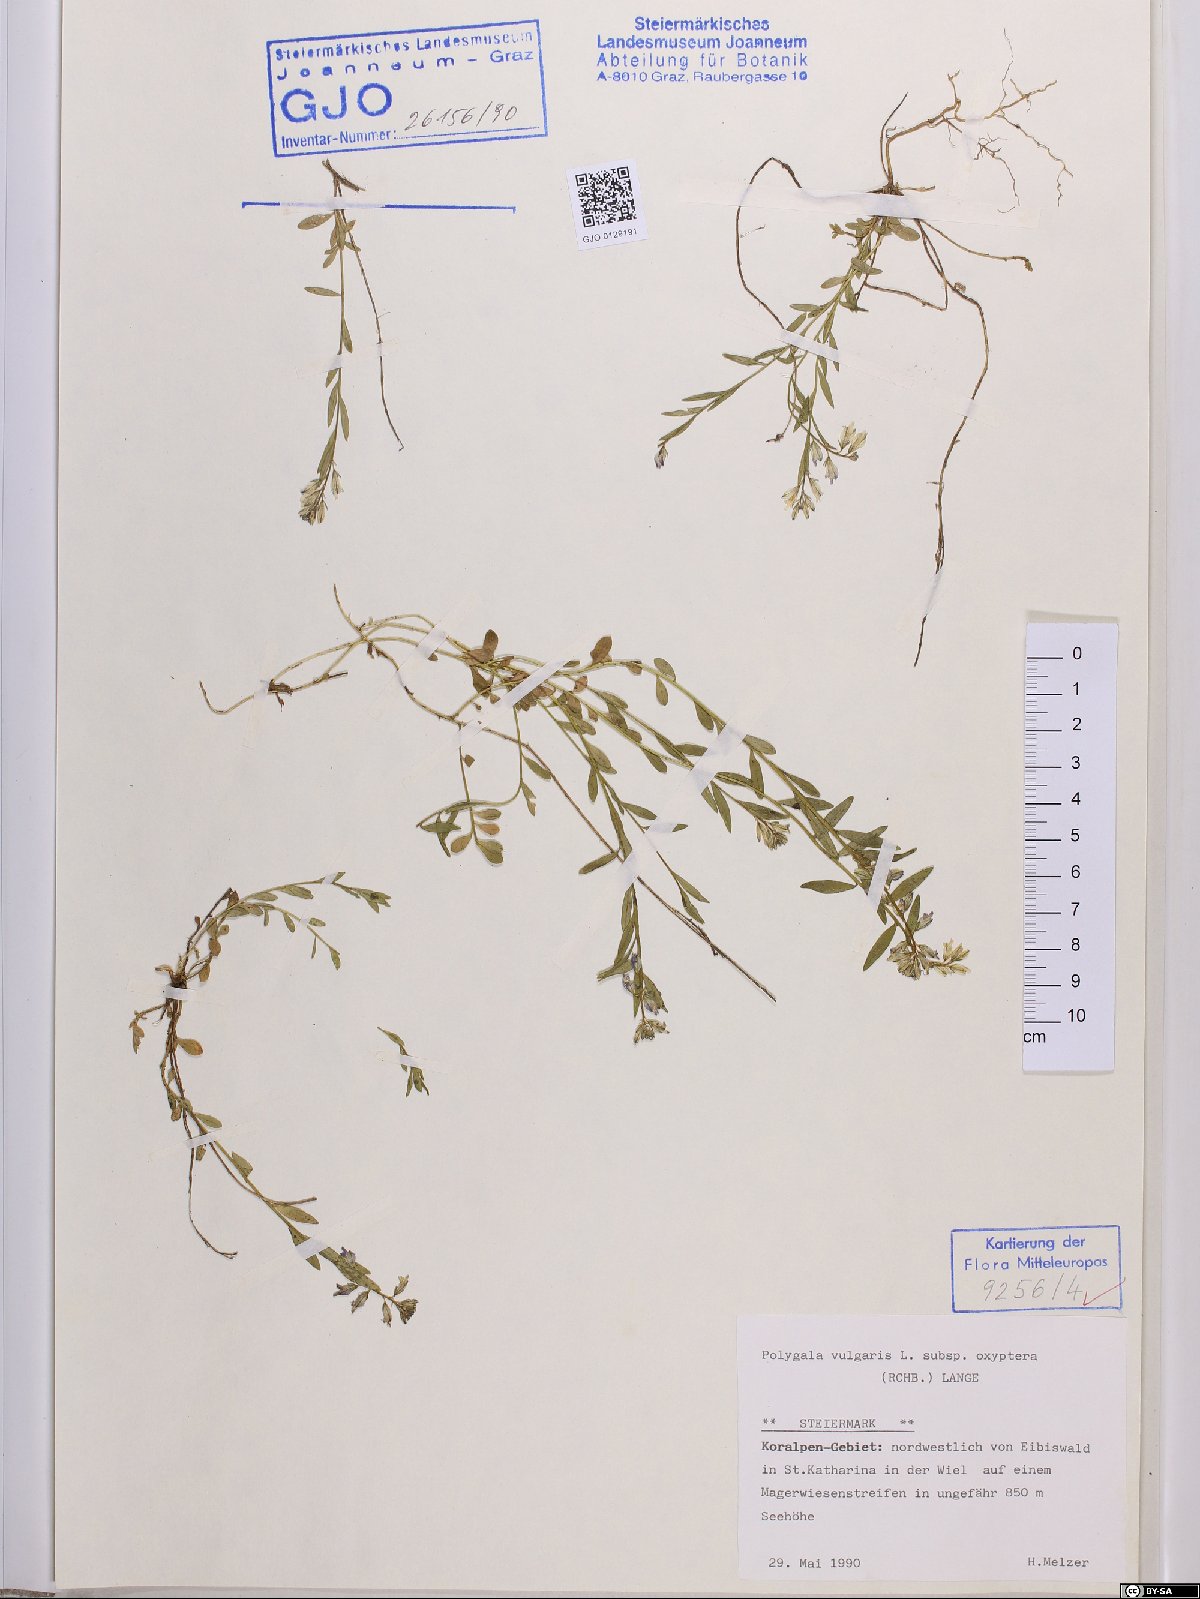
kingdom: Plantae
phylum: Tracheophyta
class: Magnoliopsida
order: Fabales
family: Polygalaceae
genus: Polygala
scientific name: Polygala vulgaris
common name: Common milkwort
